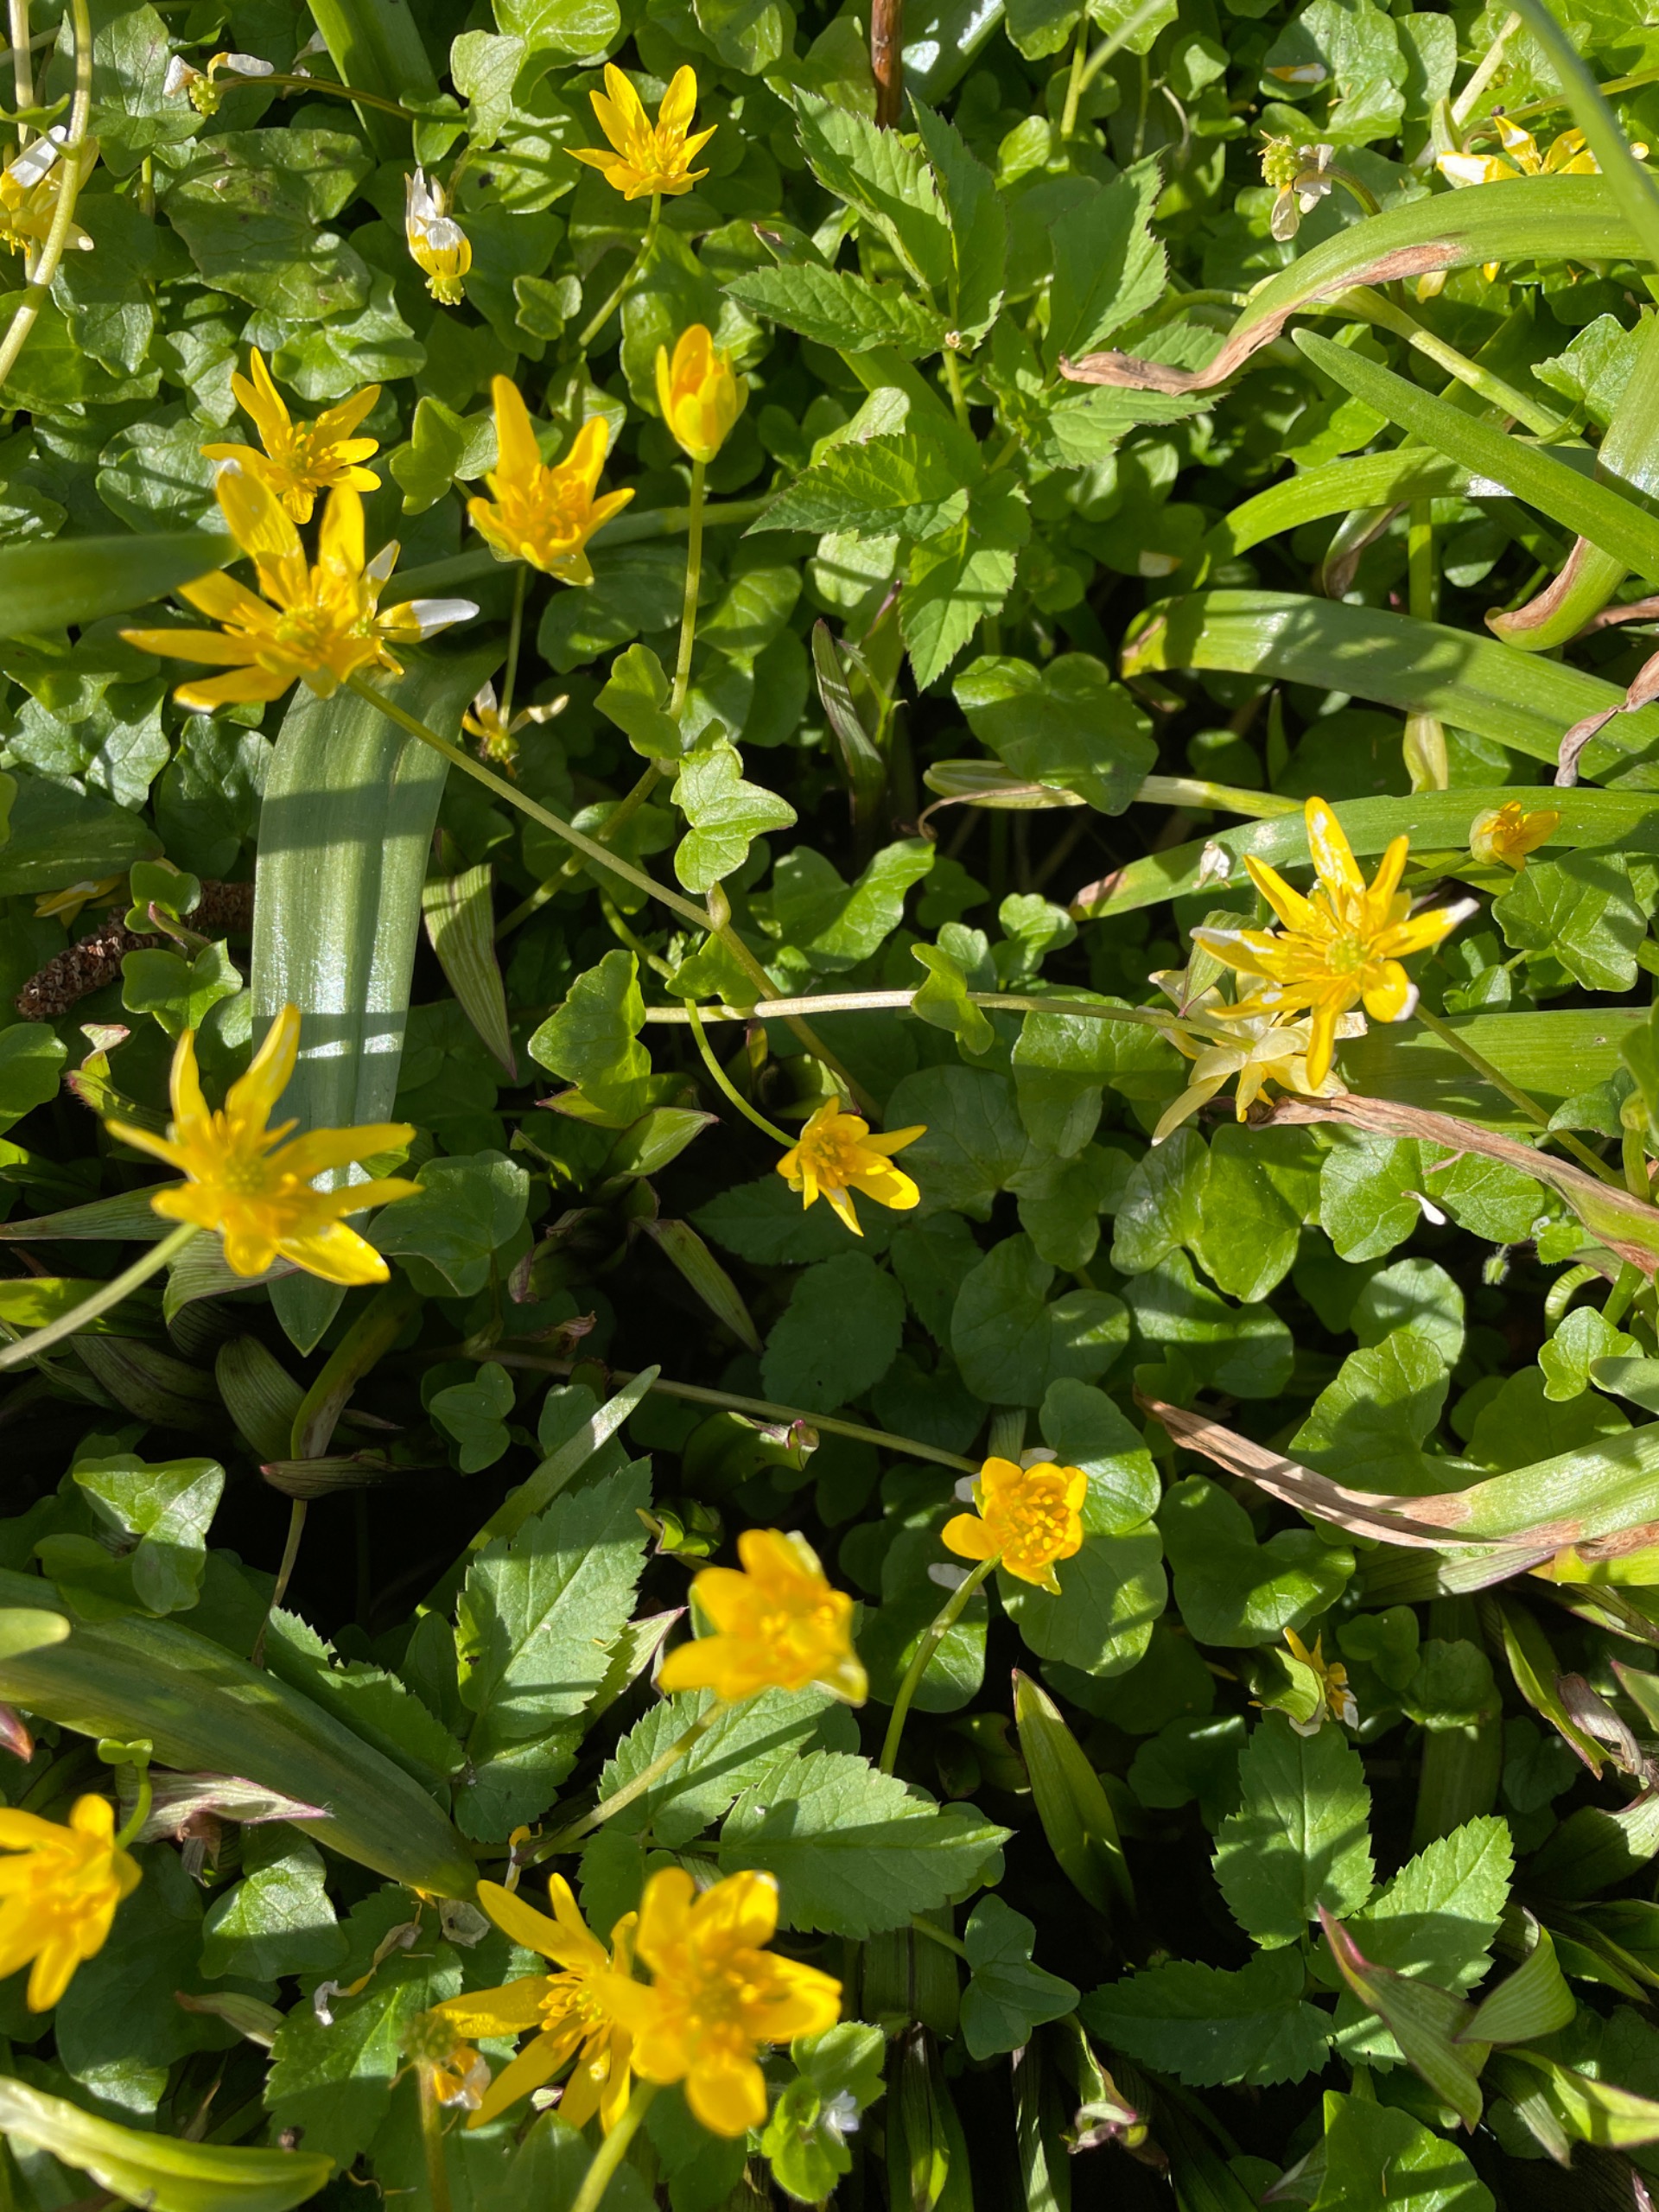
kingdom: Plantae
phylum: Tracheophyta
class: Magnoliopsida
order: Ranunculales
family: Ranunculaceae
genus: Ficaria
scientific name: Ficaria verna
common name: Vorterod
